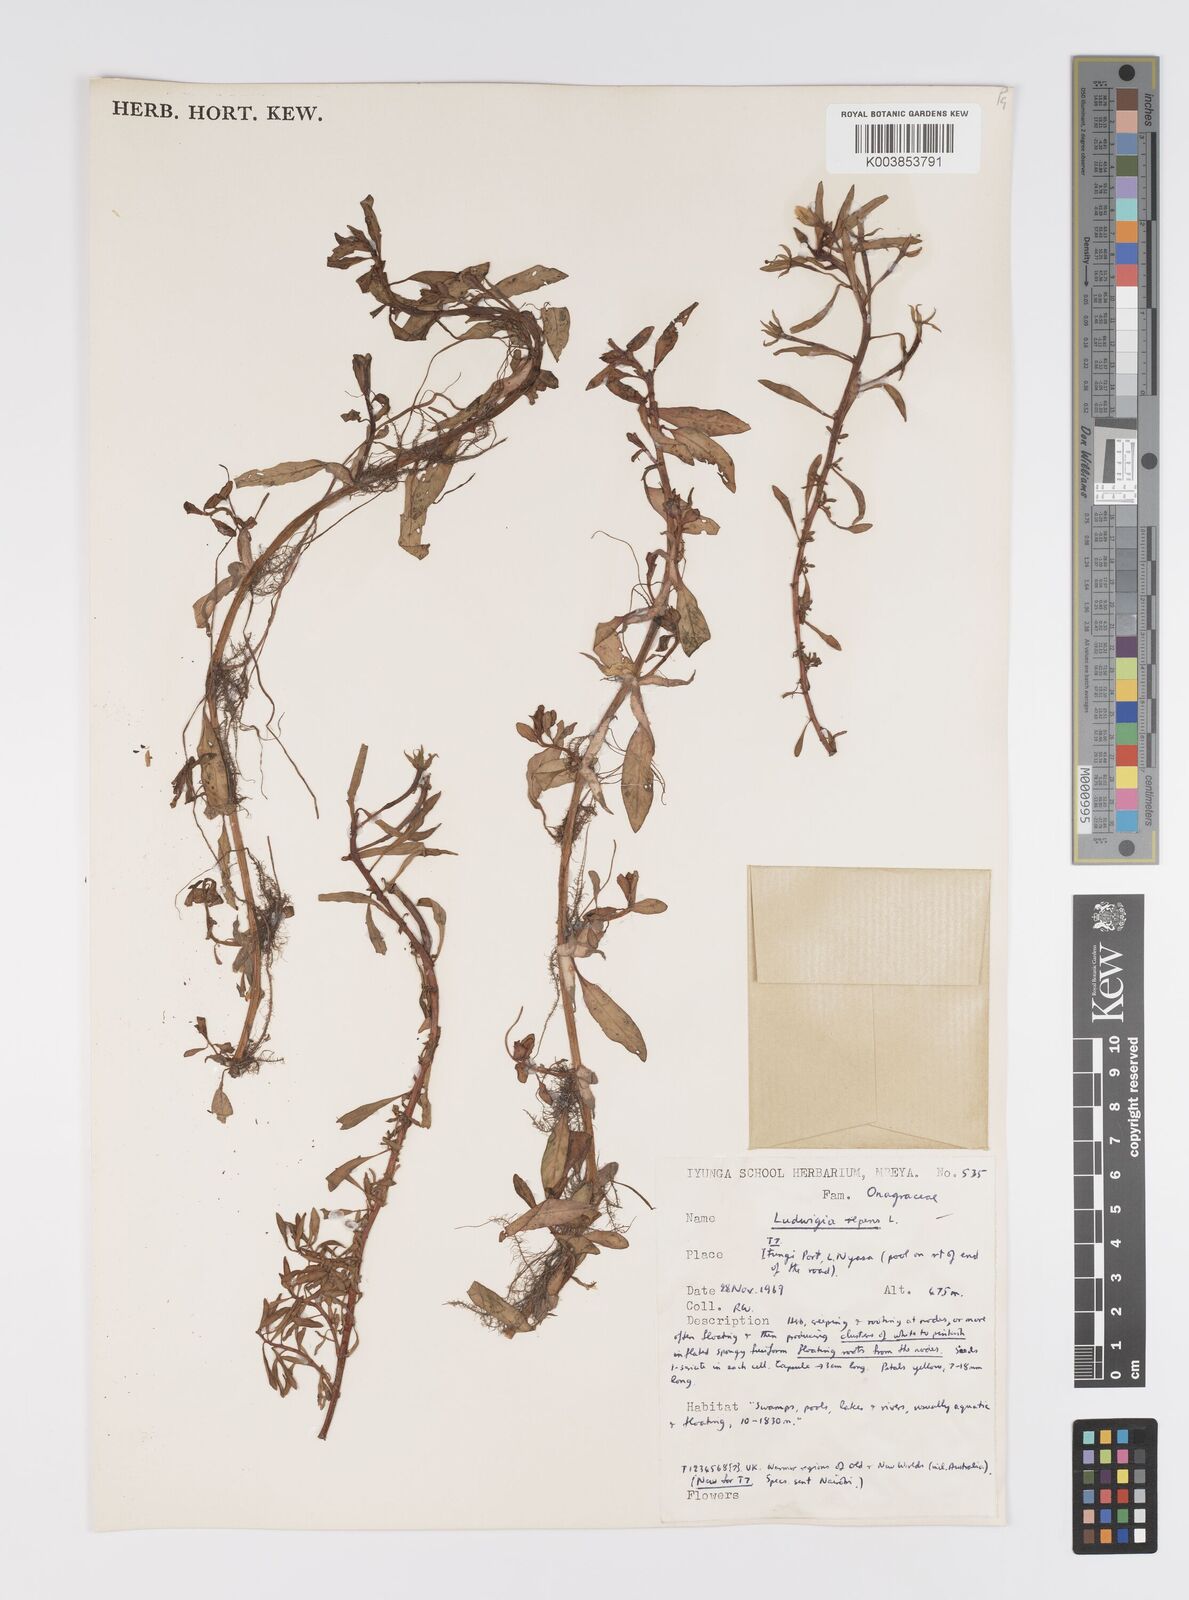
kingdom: Plantae
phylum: Tracheophyta
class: Magnoliopsida
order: Myrtales
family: Onagraceae
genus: Ludwigia
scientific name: Ludwigia repens
